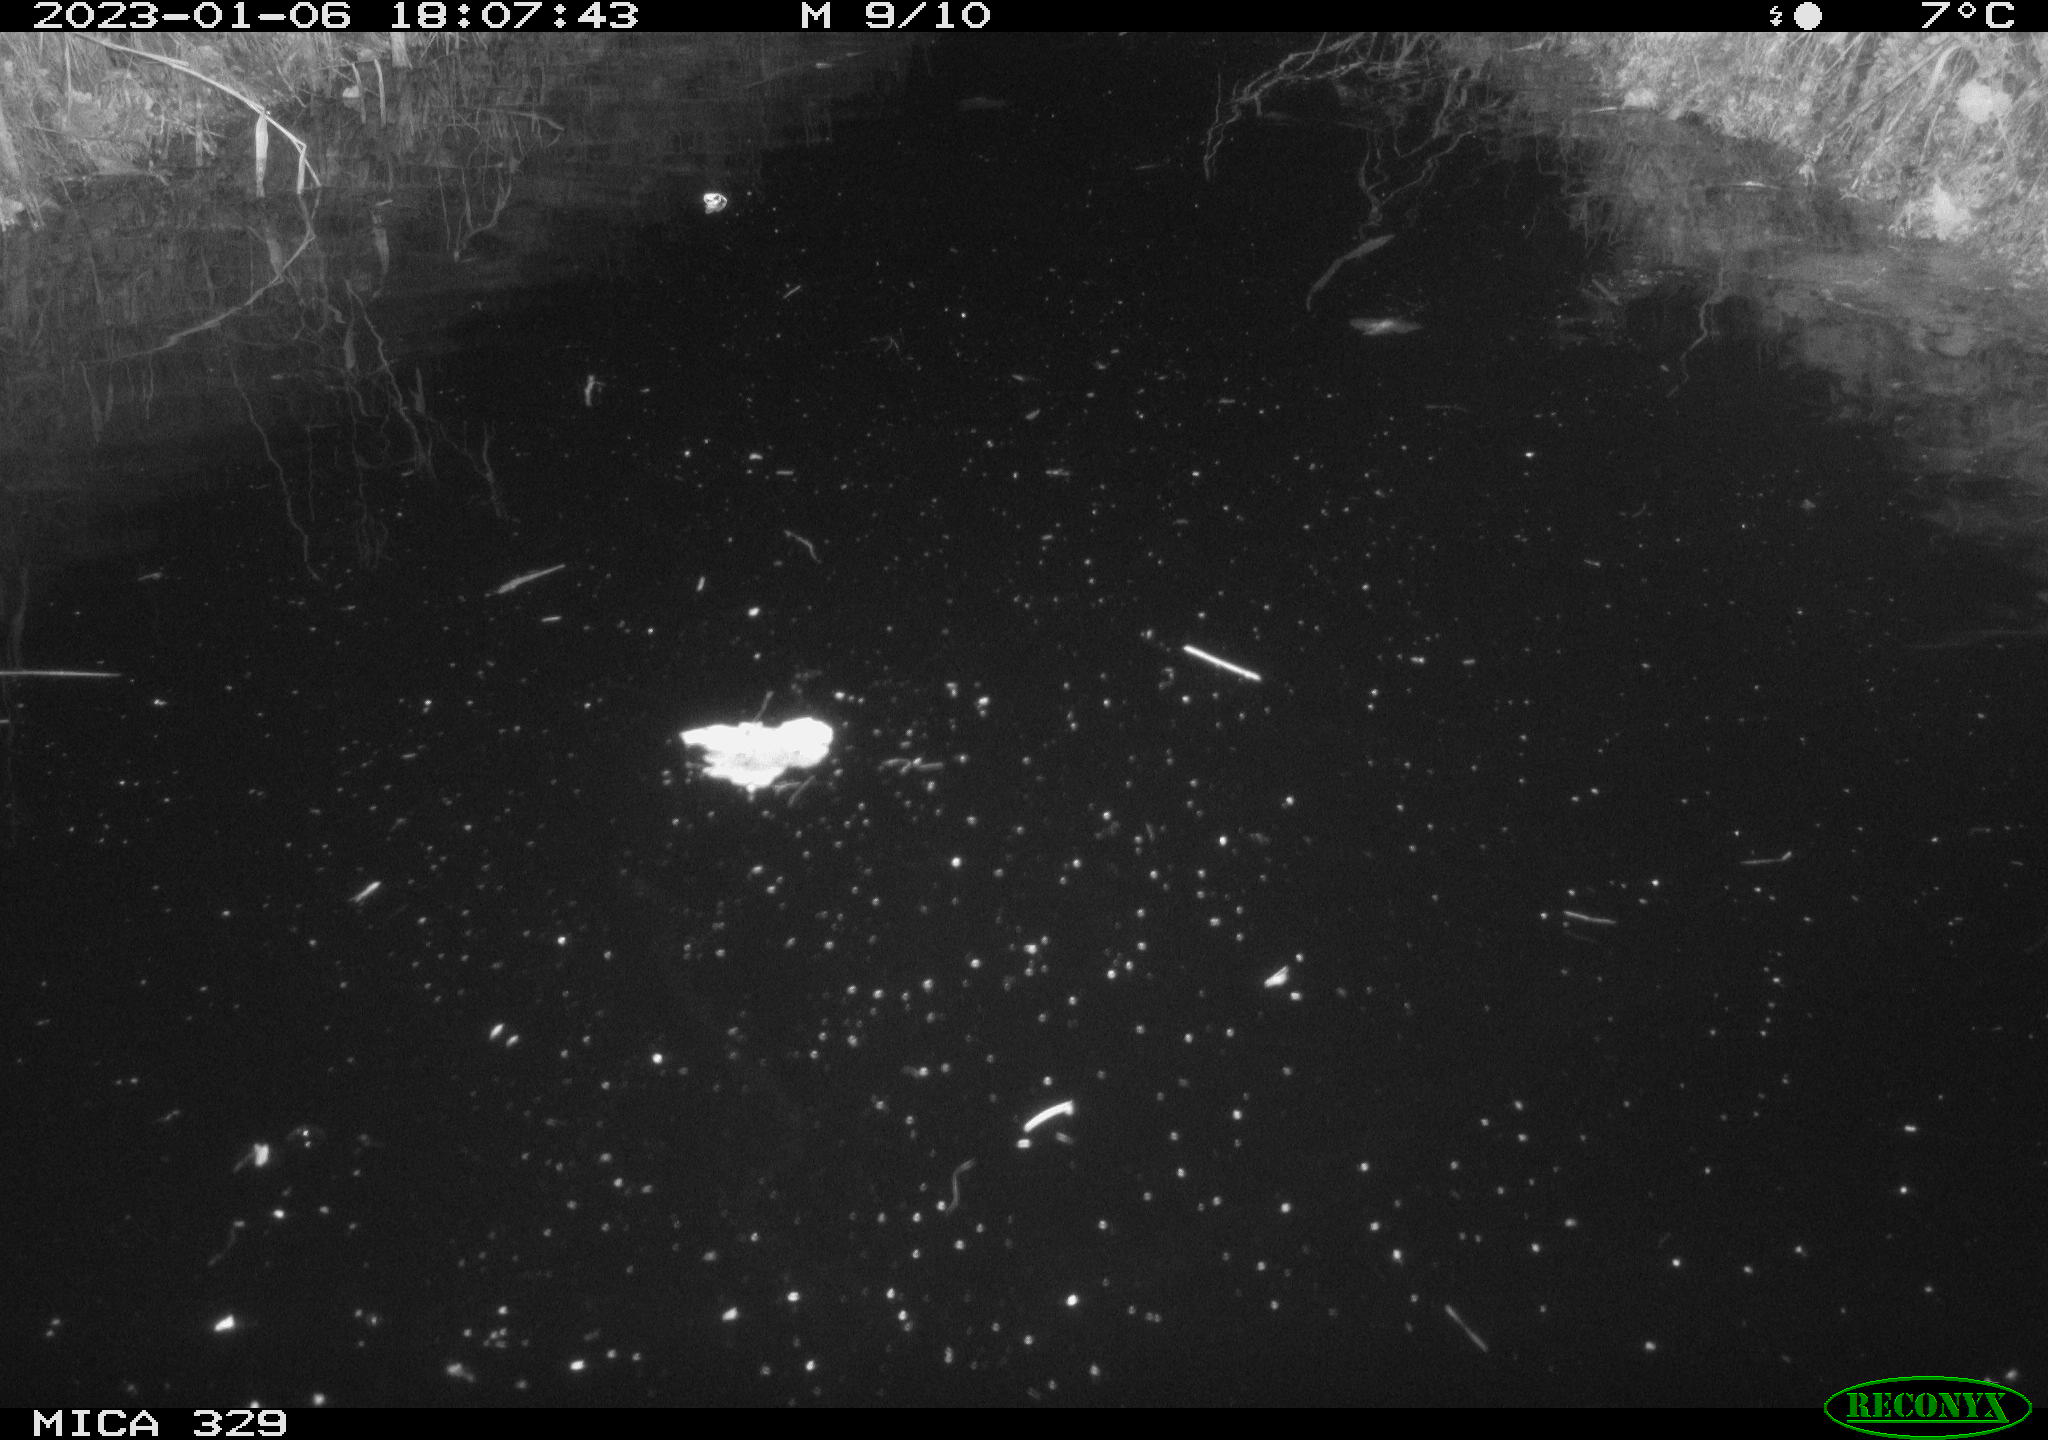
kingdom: Animalia
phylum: Chordata
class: Mammalia
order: Rodentia
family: Cricetidae
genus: Ondatra
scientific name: Ondatra zibethicus
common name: Muskrat
